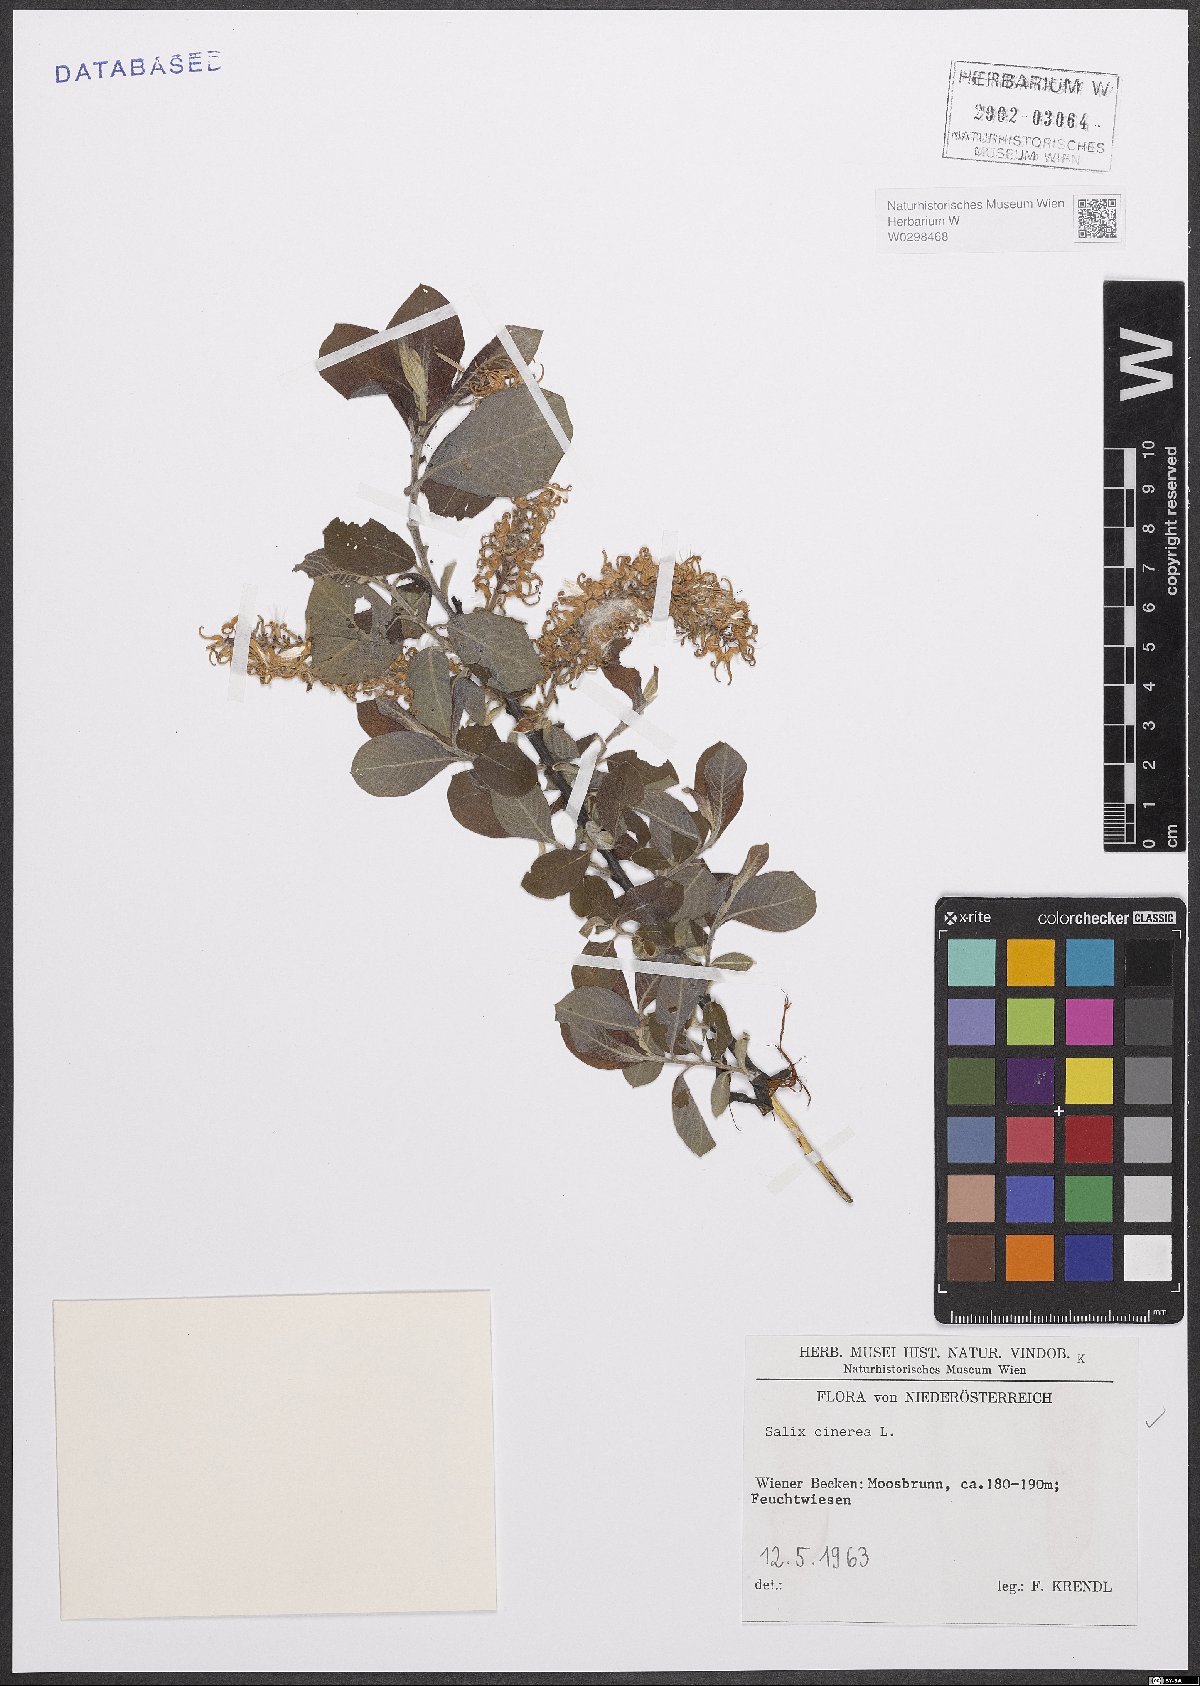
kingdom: Plantae
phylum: Tracheophyta
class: Magnoliopsida
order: Malpighiales
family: Salicaceae
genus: Salix
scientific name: Salix cinerea
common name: Common sallow
